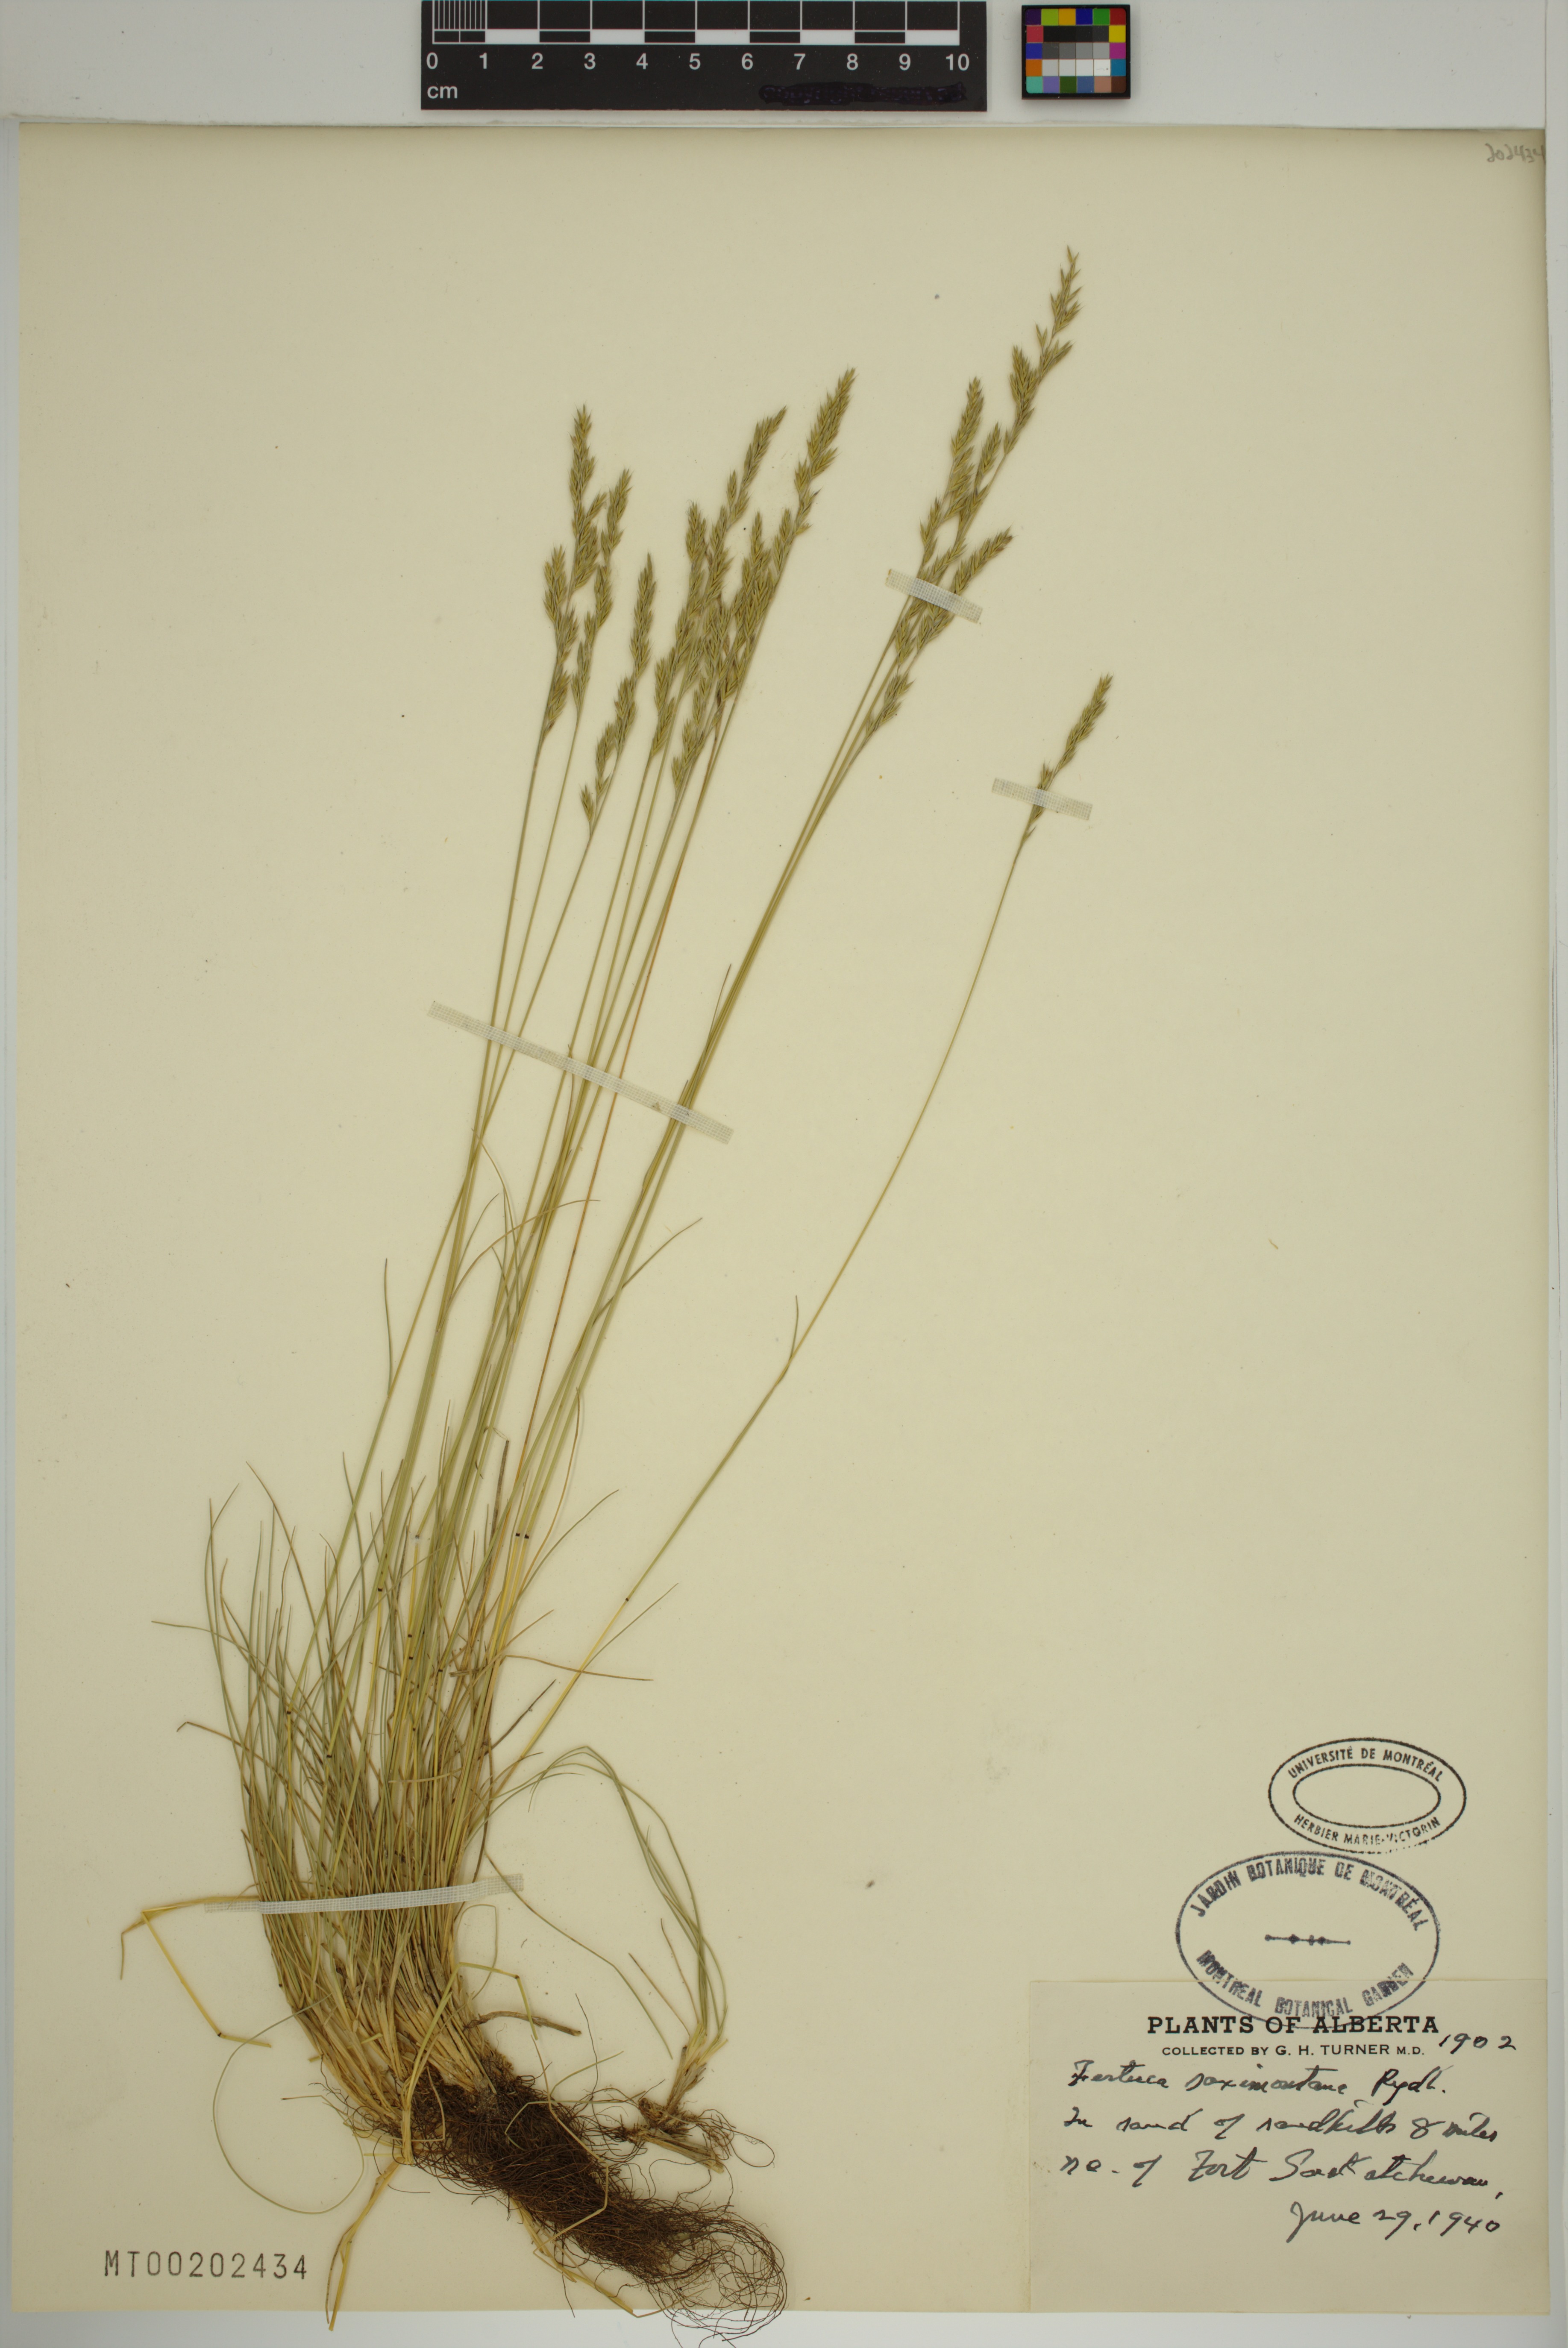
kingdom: Plantae
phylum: Tracheophyta
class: Liliopsida
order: Poales
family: Poaceae
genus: Festuca
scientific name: Festuca saximontana
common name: Mountain fescue
